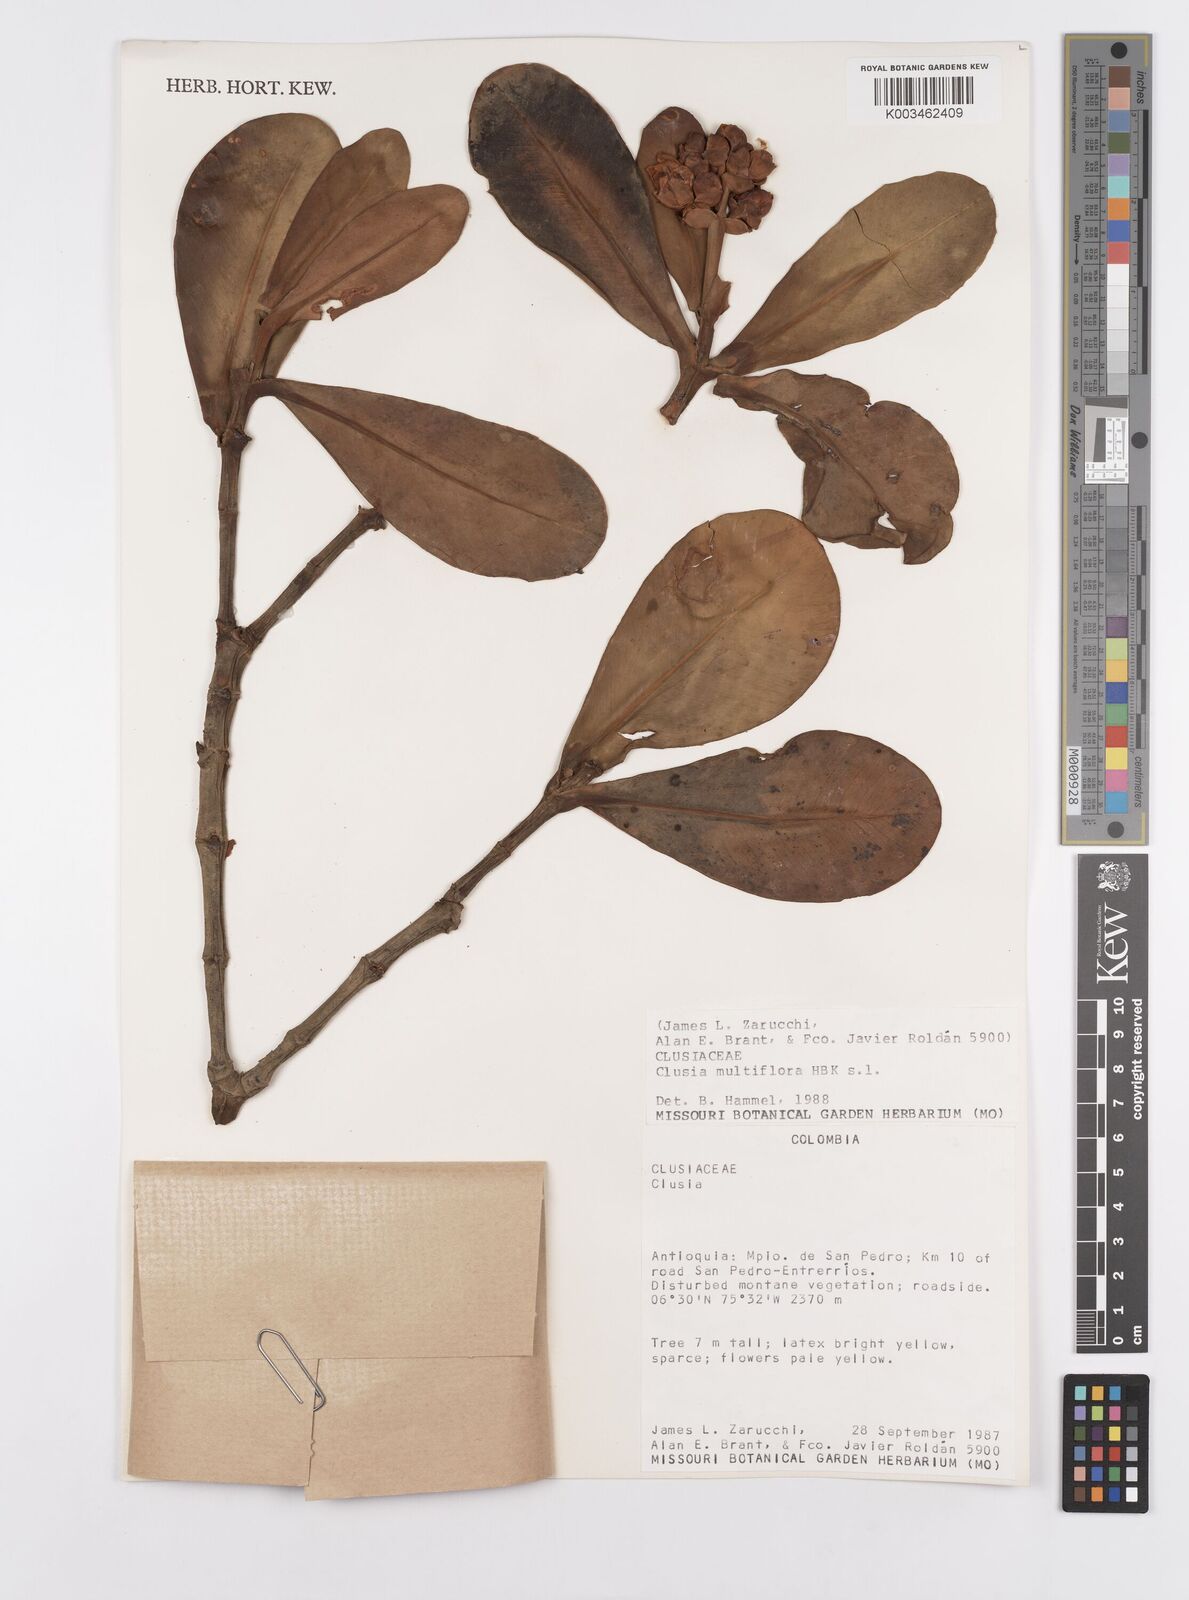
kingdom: Plantae
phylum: Tracheophyta
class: Magnoliopsida
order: Malpighiales
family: Clusiaceae
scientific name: Clusiaceae
